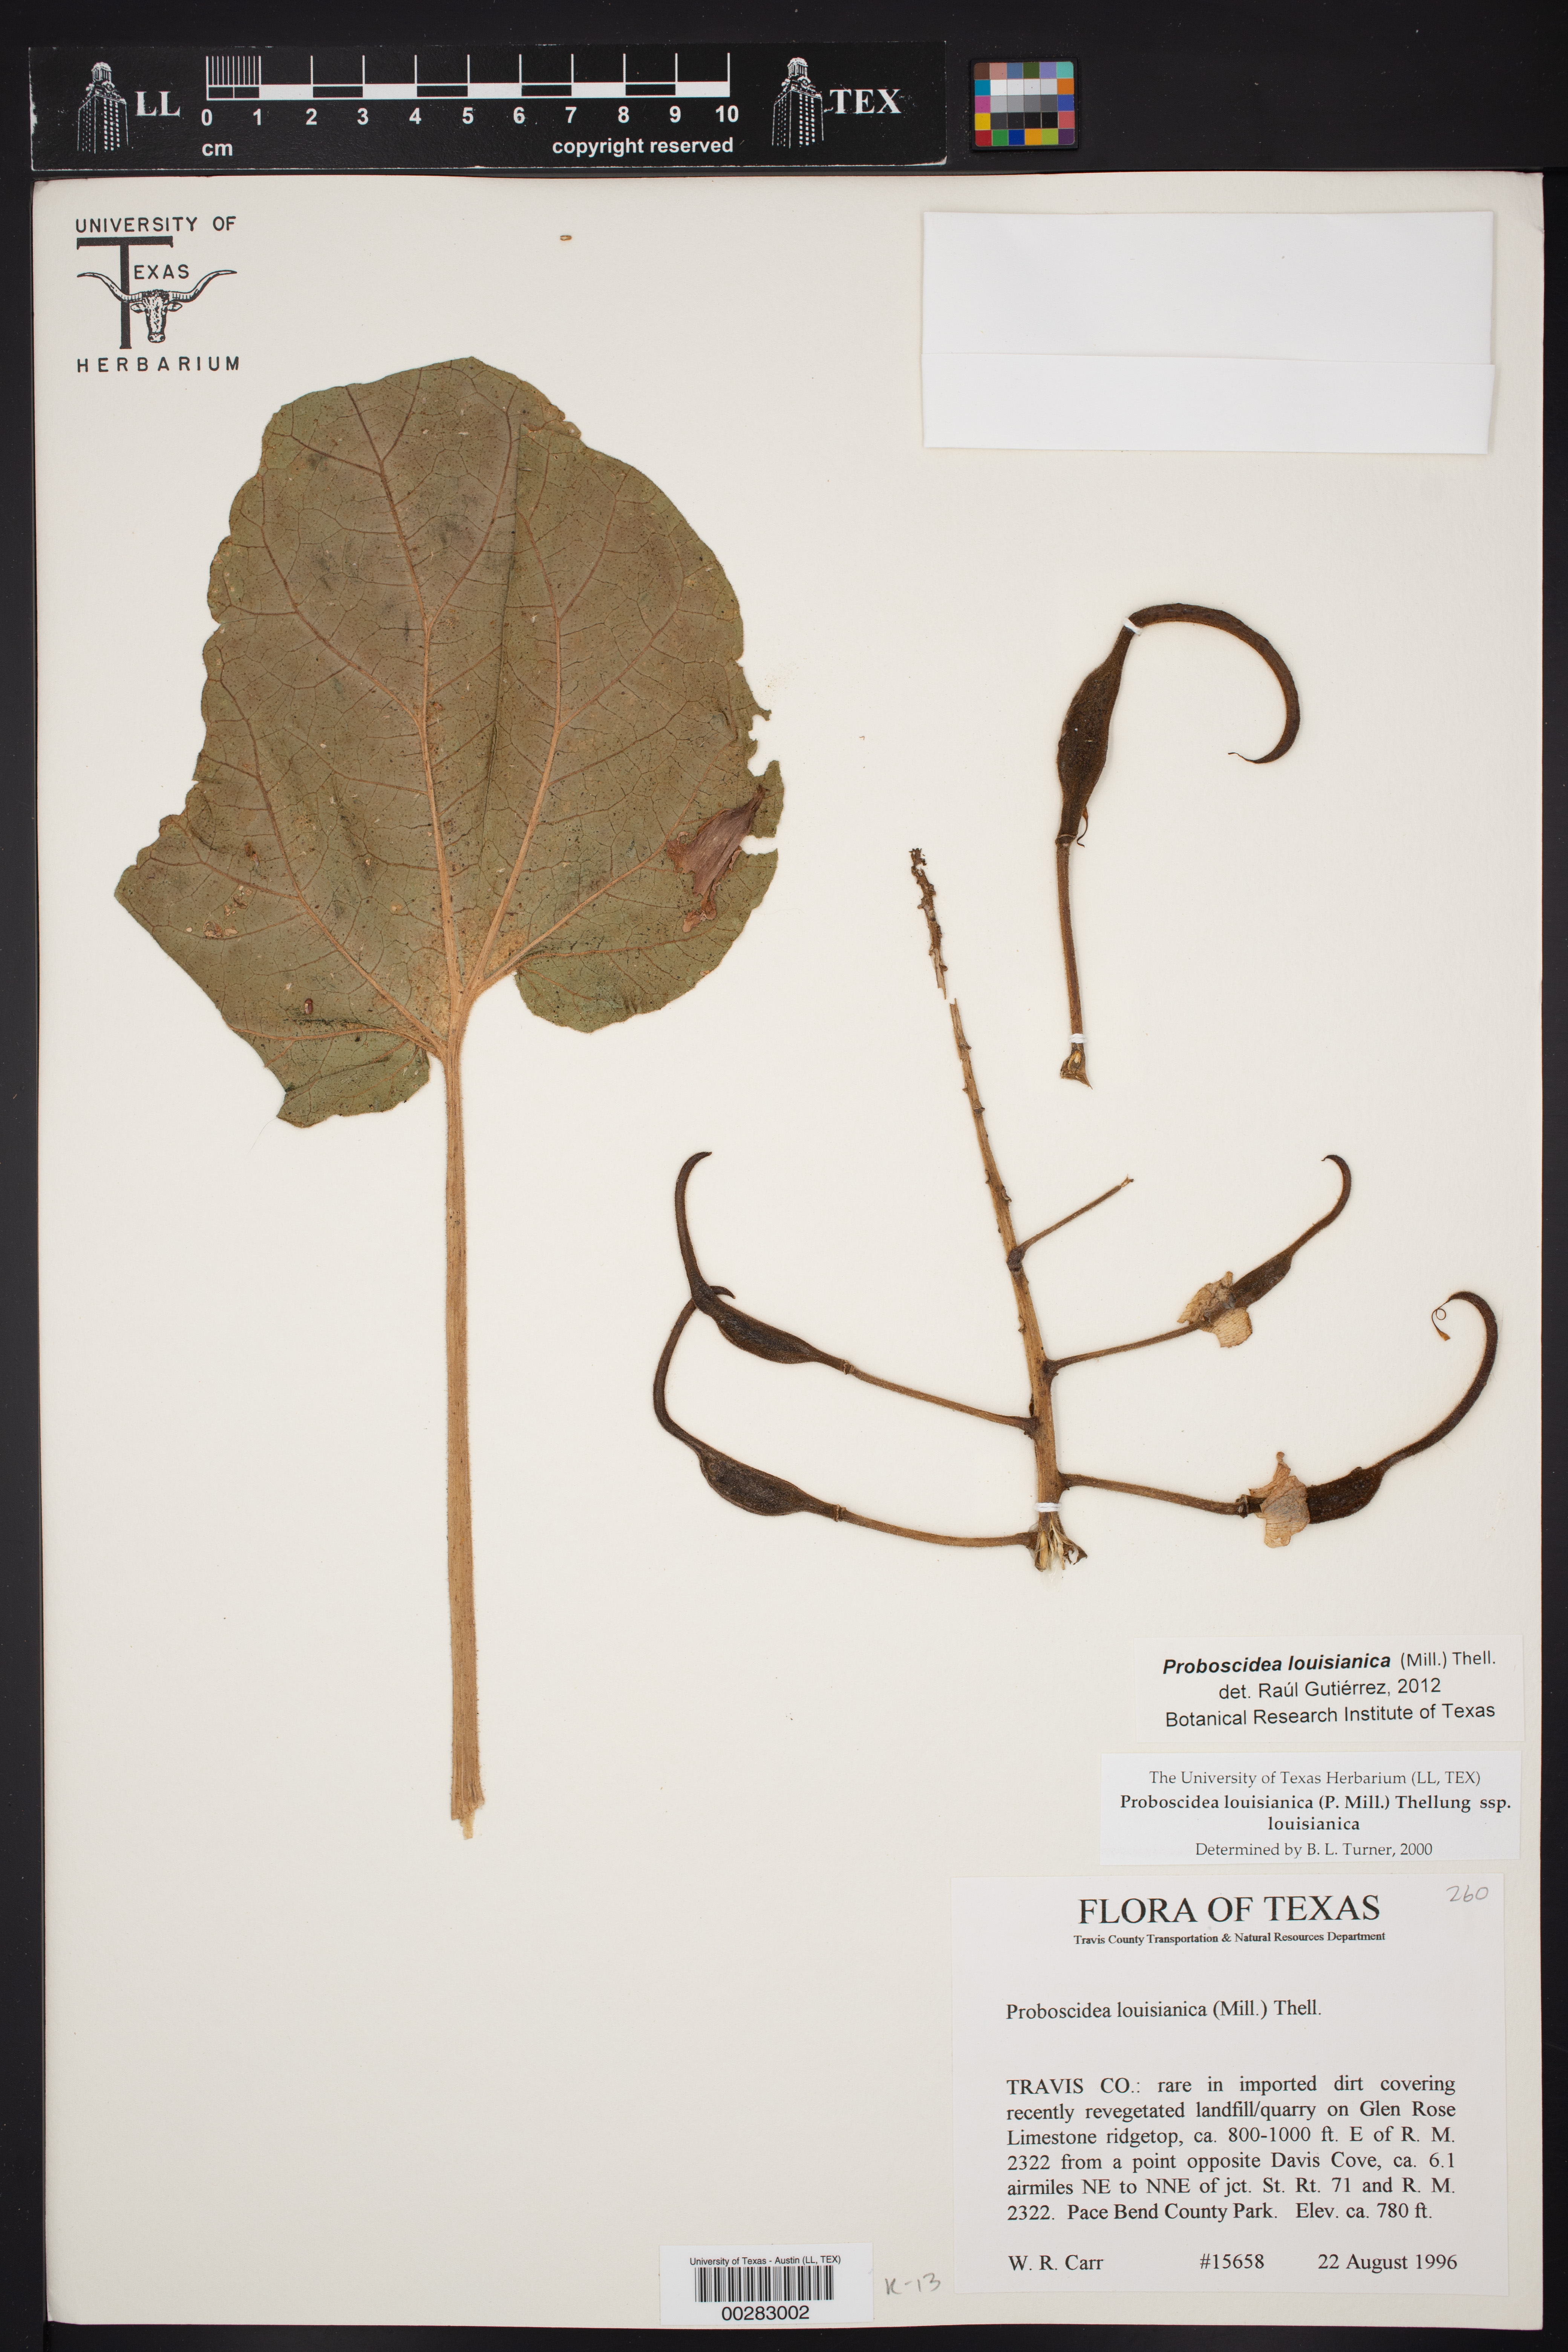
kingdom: Plantae
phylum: Tracheophyta
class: Magnoliopsida
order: Lamiales
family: Martyniaceae
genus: Proboscidea
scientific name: Proboscidea louisianica
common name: Elephant tusks
